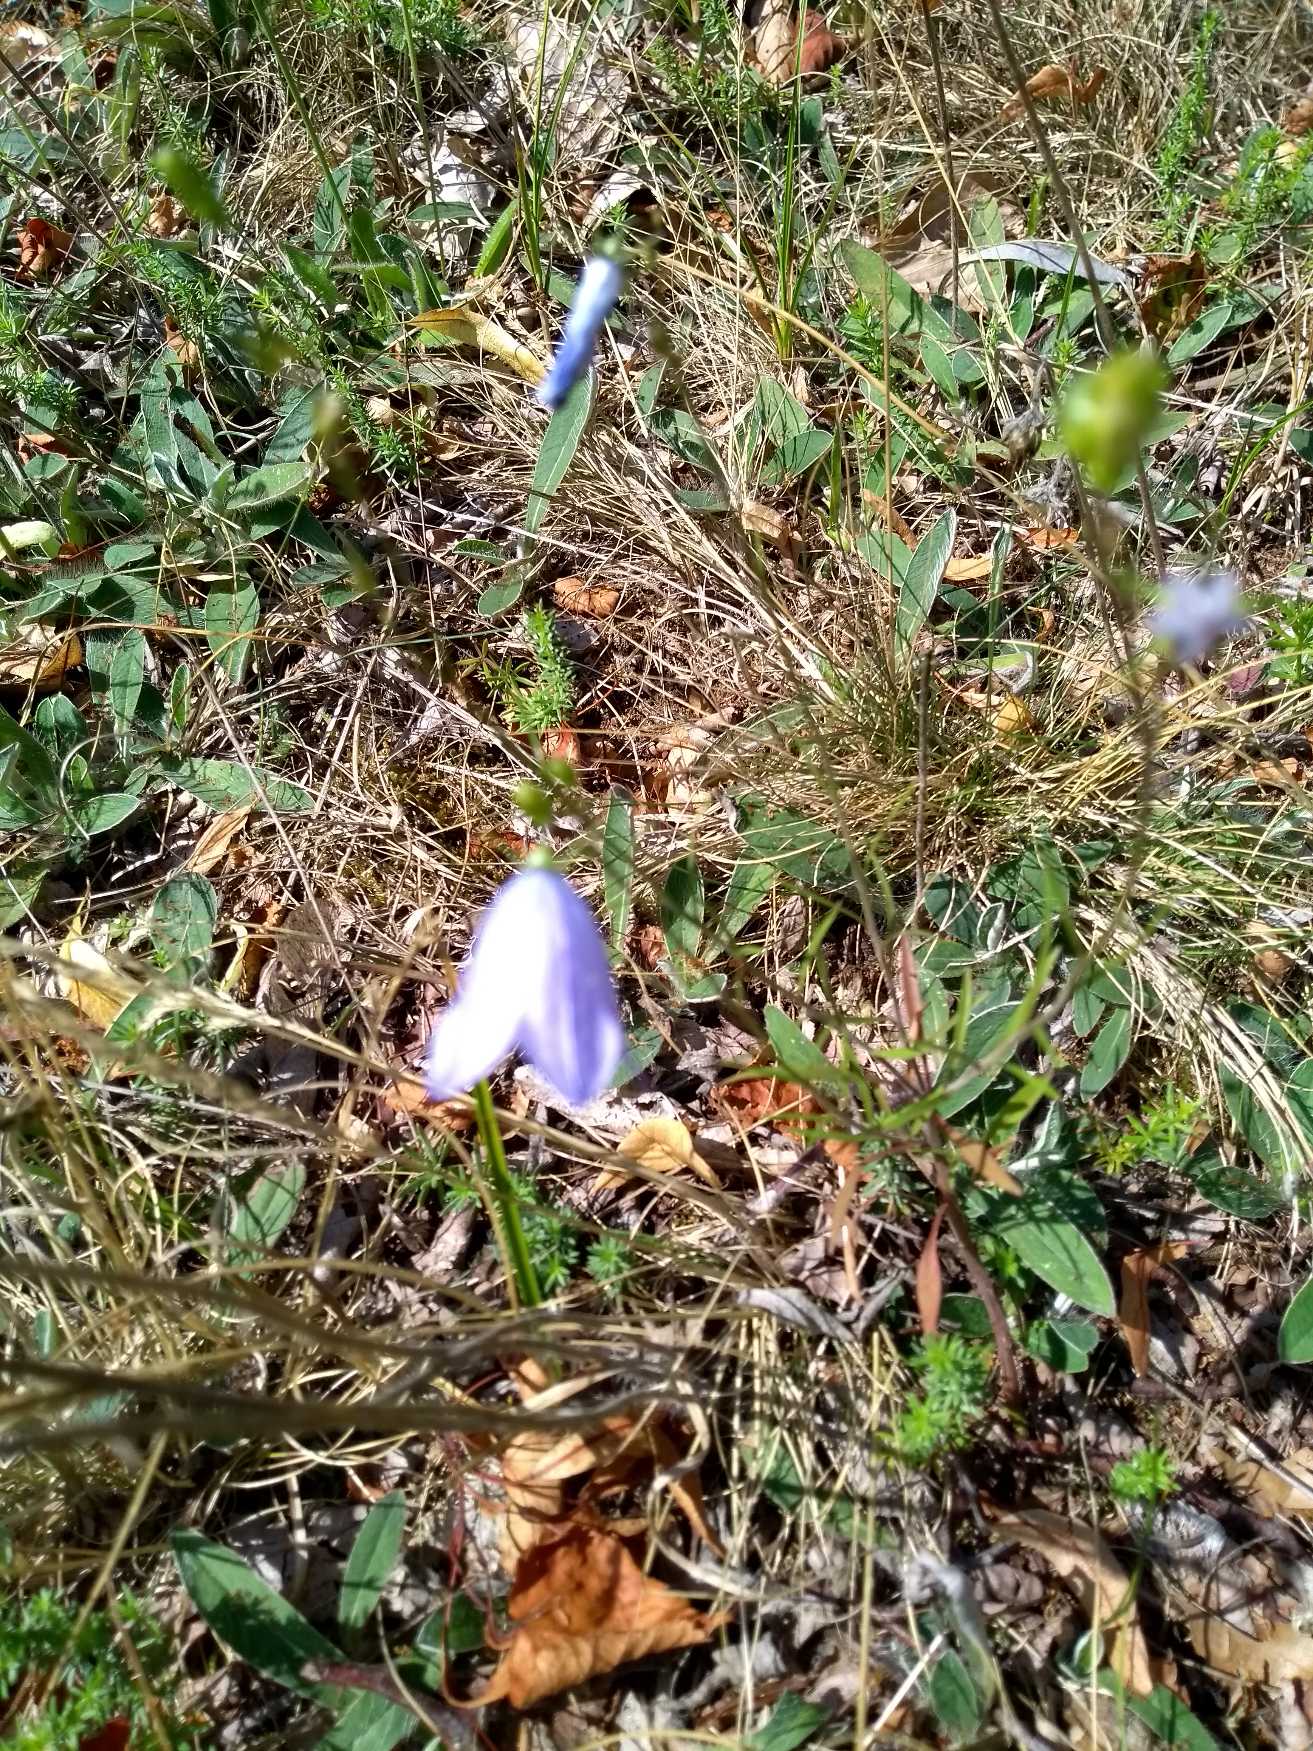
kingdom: Plantae
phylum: Tracheophyta
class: Magnoliopsida
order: Asterales
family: Campanulaceae
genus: Campanula
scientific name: Campanula rotundifolia
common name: Liden klokke
